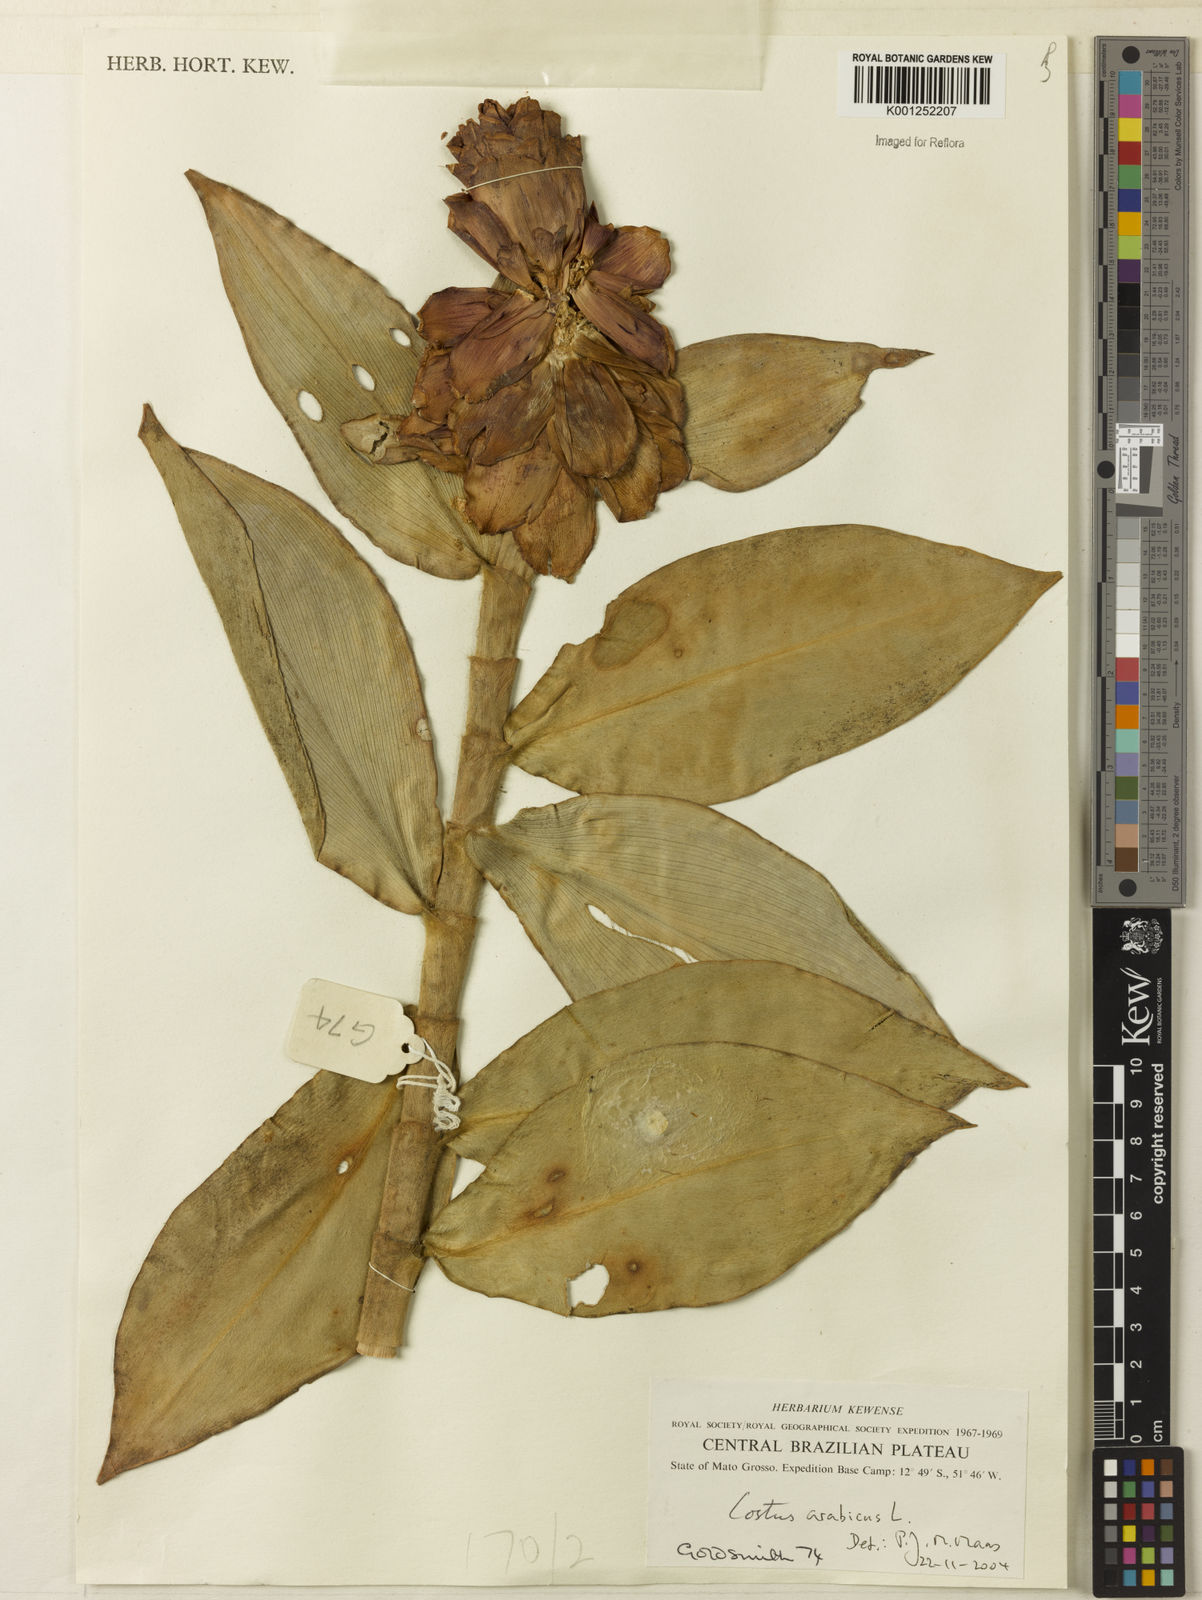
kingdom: Plantae
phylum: Tracheophyta
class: Liliopsida
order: Zingiberales
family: Costaceae
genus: Costus
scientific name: Costus arabicus
